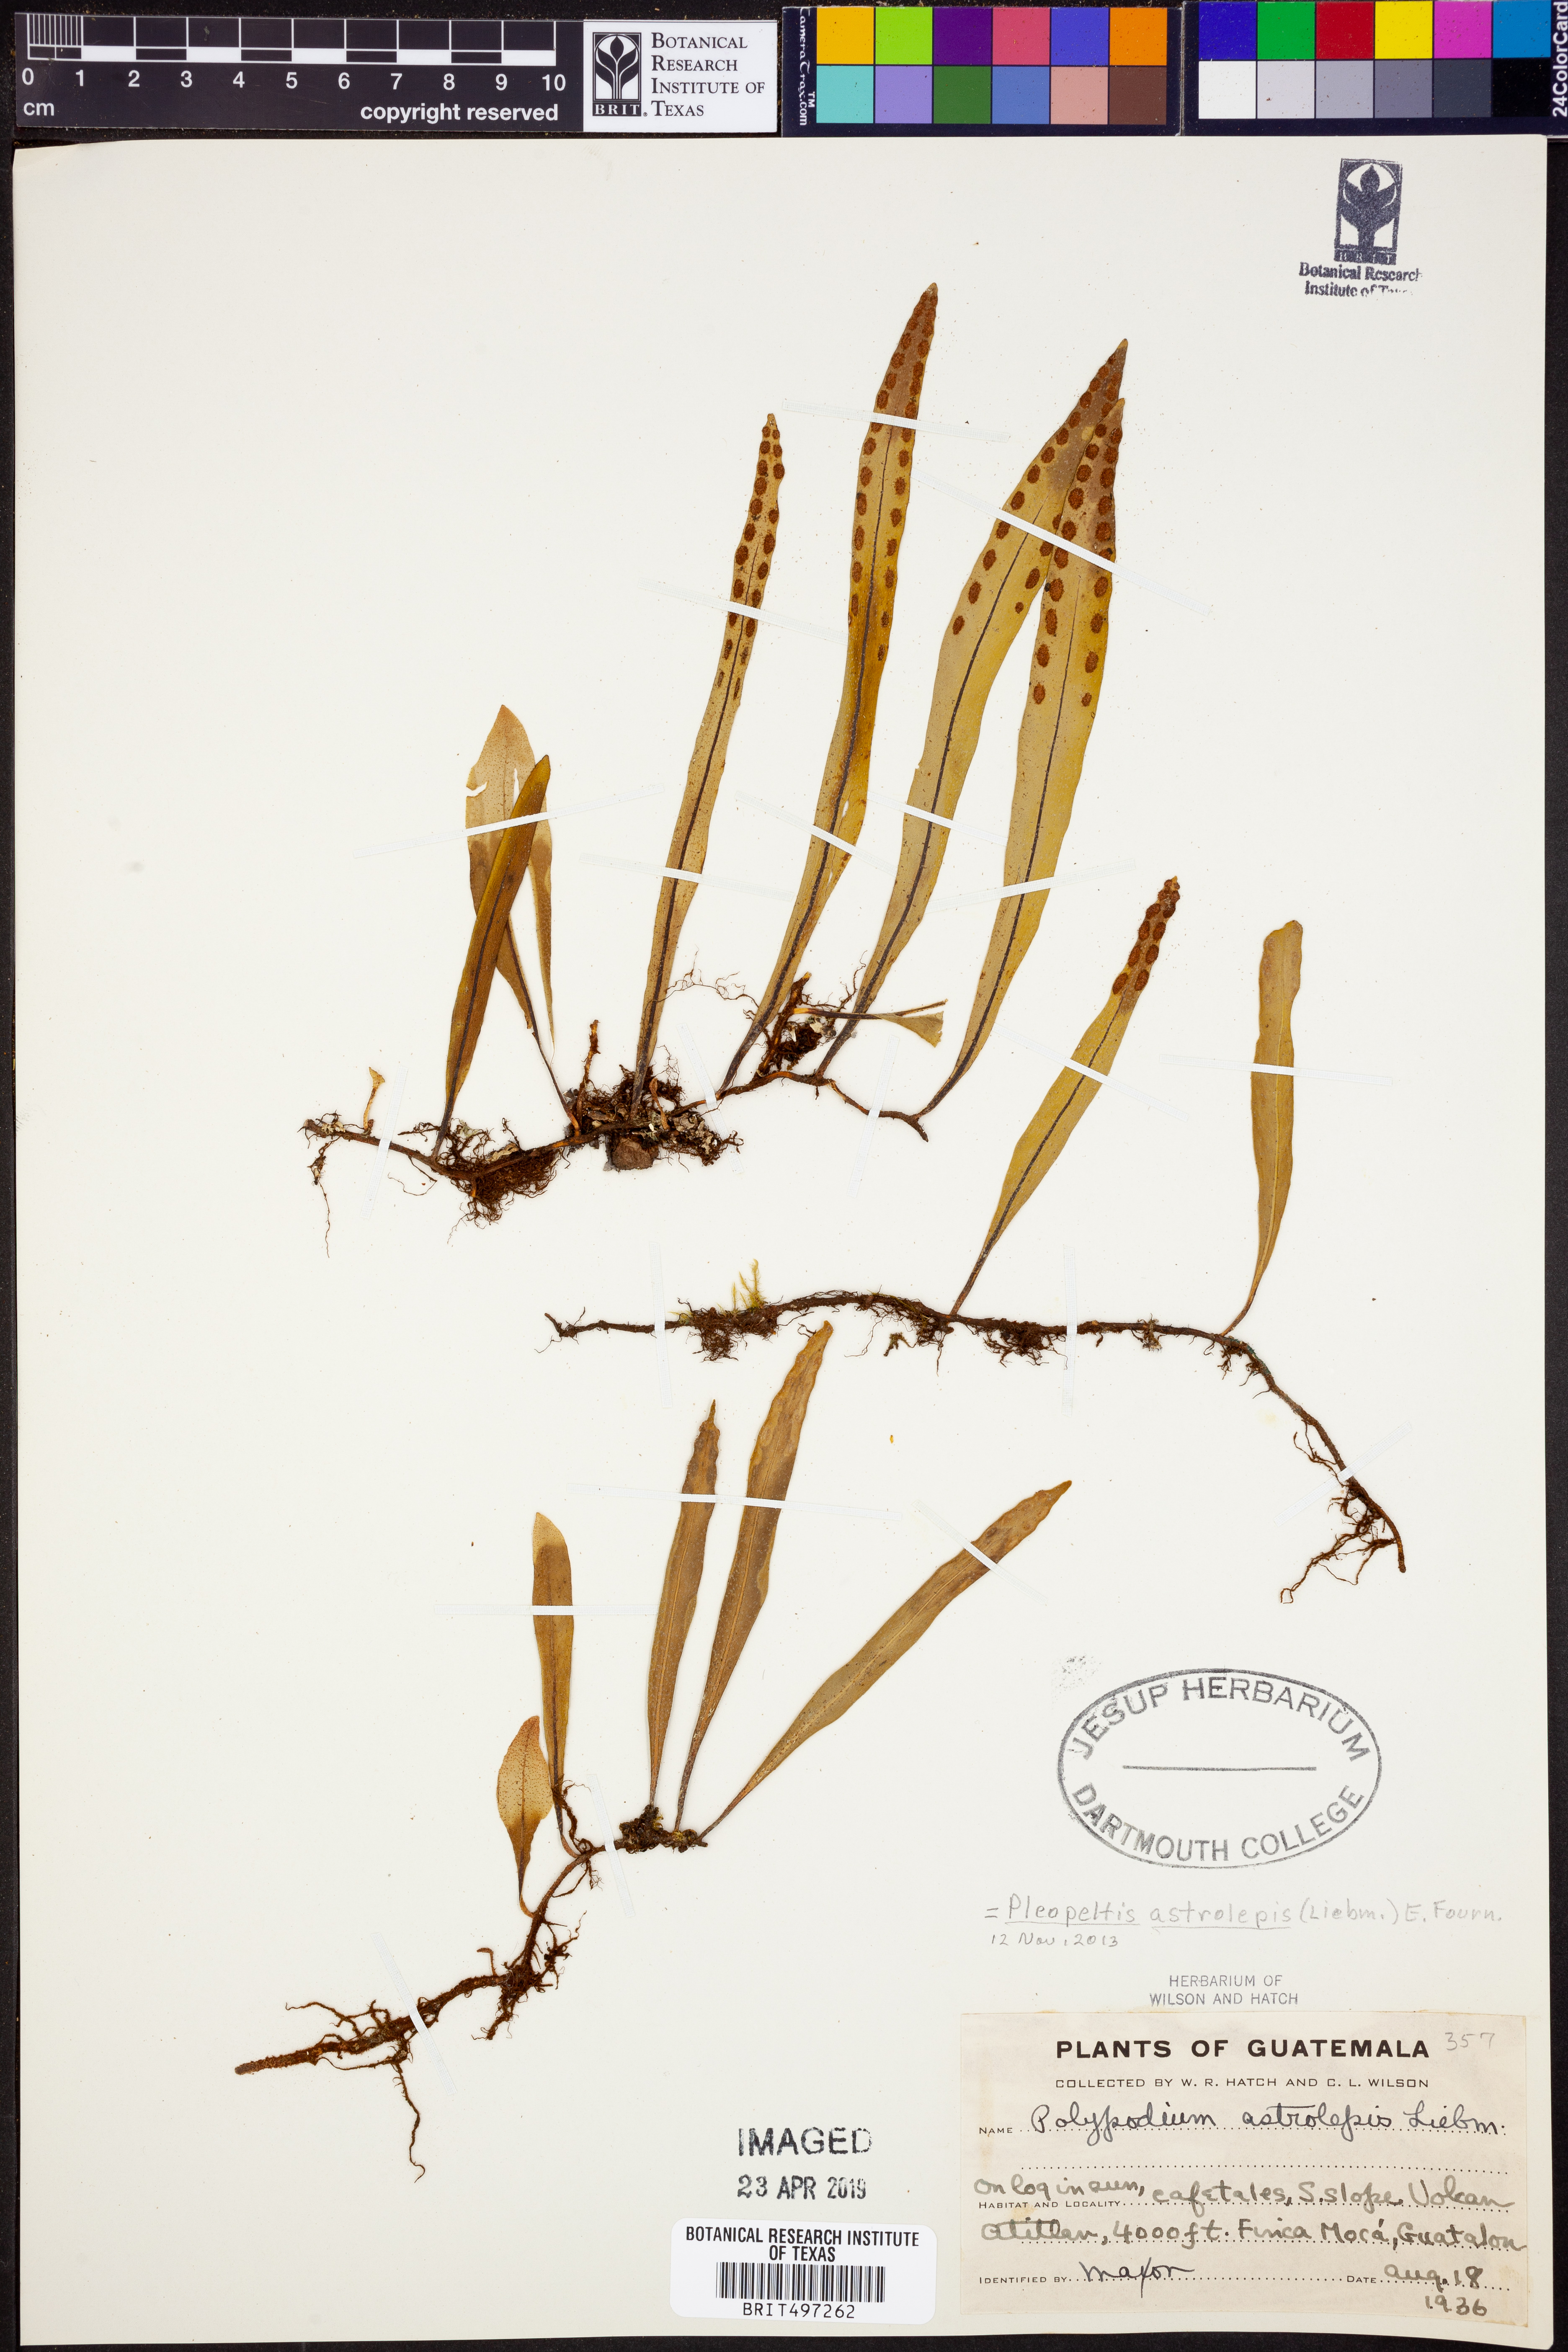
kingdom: Plantae
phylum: Tracheophyta
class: Polypodiopsida
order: Polypodiales
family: Polypodiaceae
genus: Pleopeltis
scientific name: Pleopeltis astrolepis
